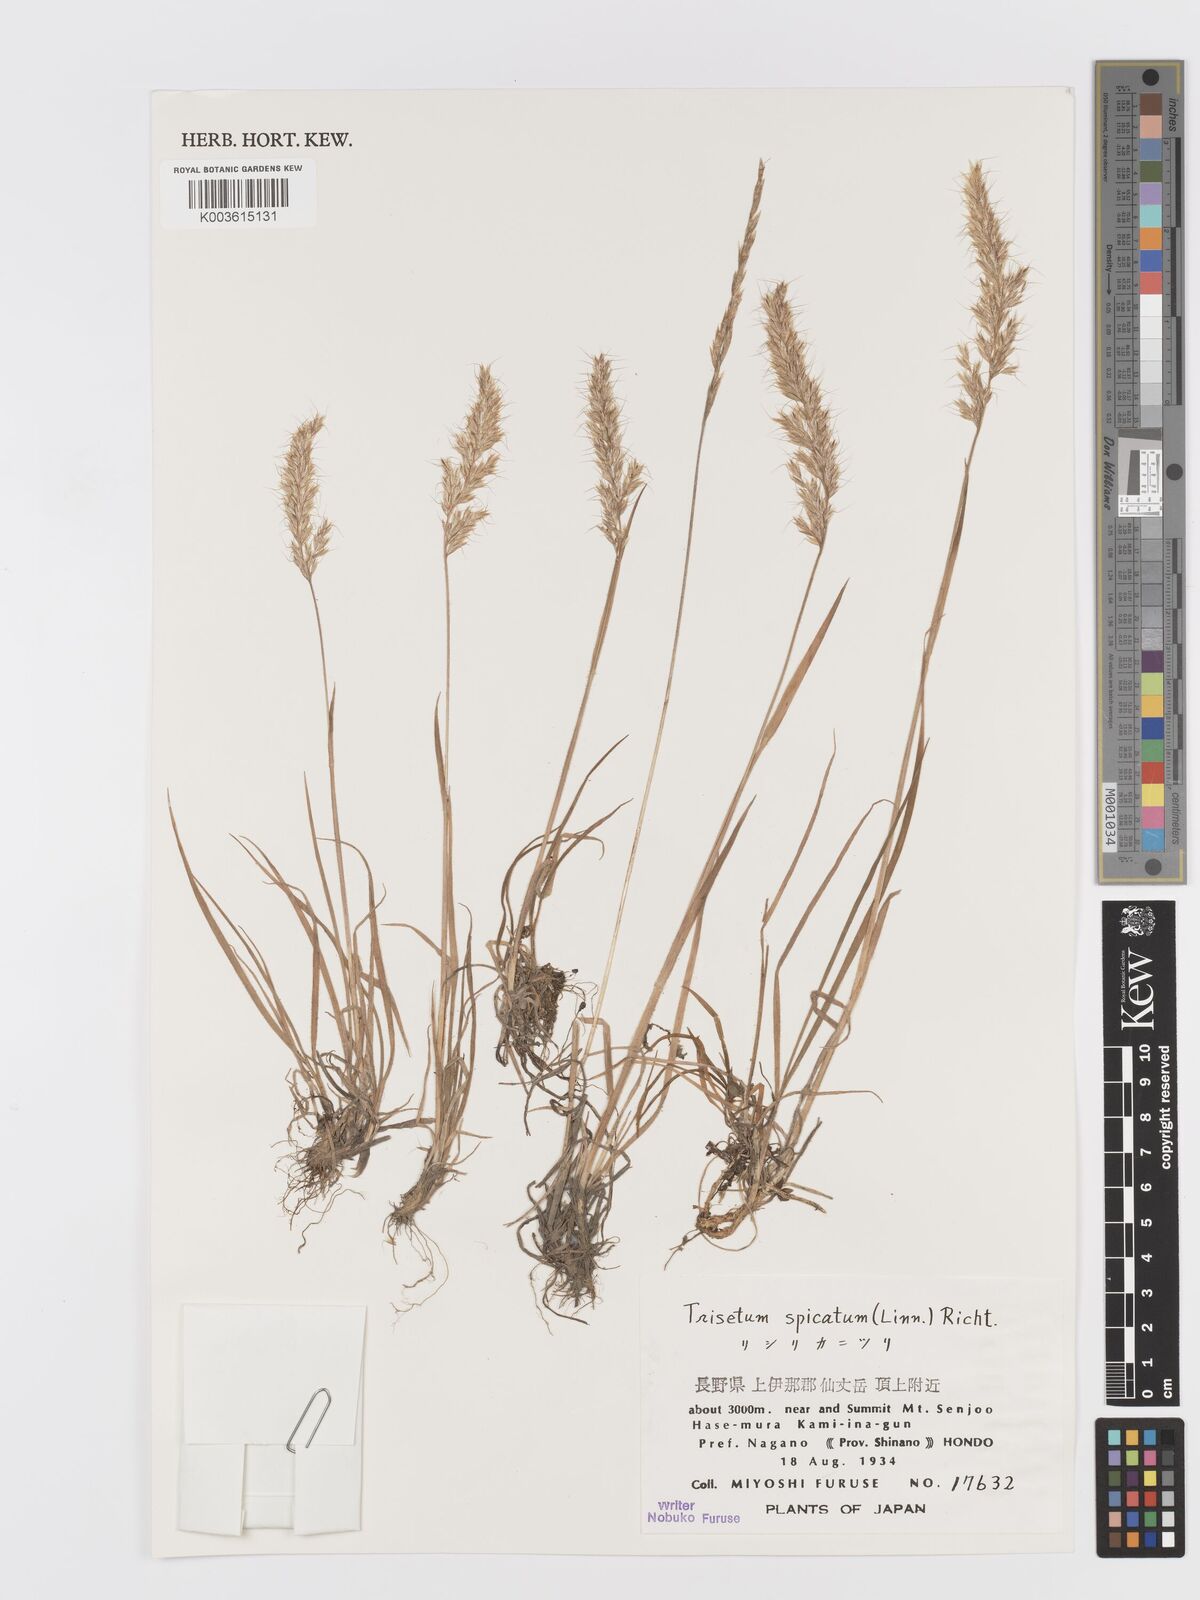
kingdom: Plantae
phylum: Tracheophyta
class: Liliopsida
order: Poales
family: Poaceae
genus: Koeleria
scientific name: Koeleria spicata
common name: Mountain trisetum
